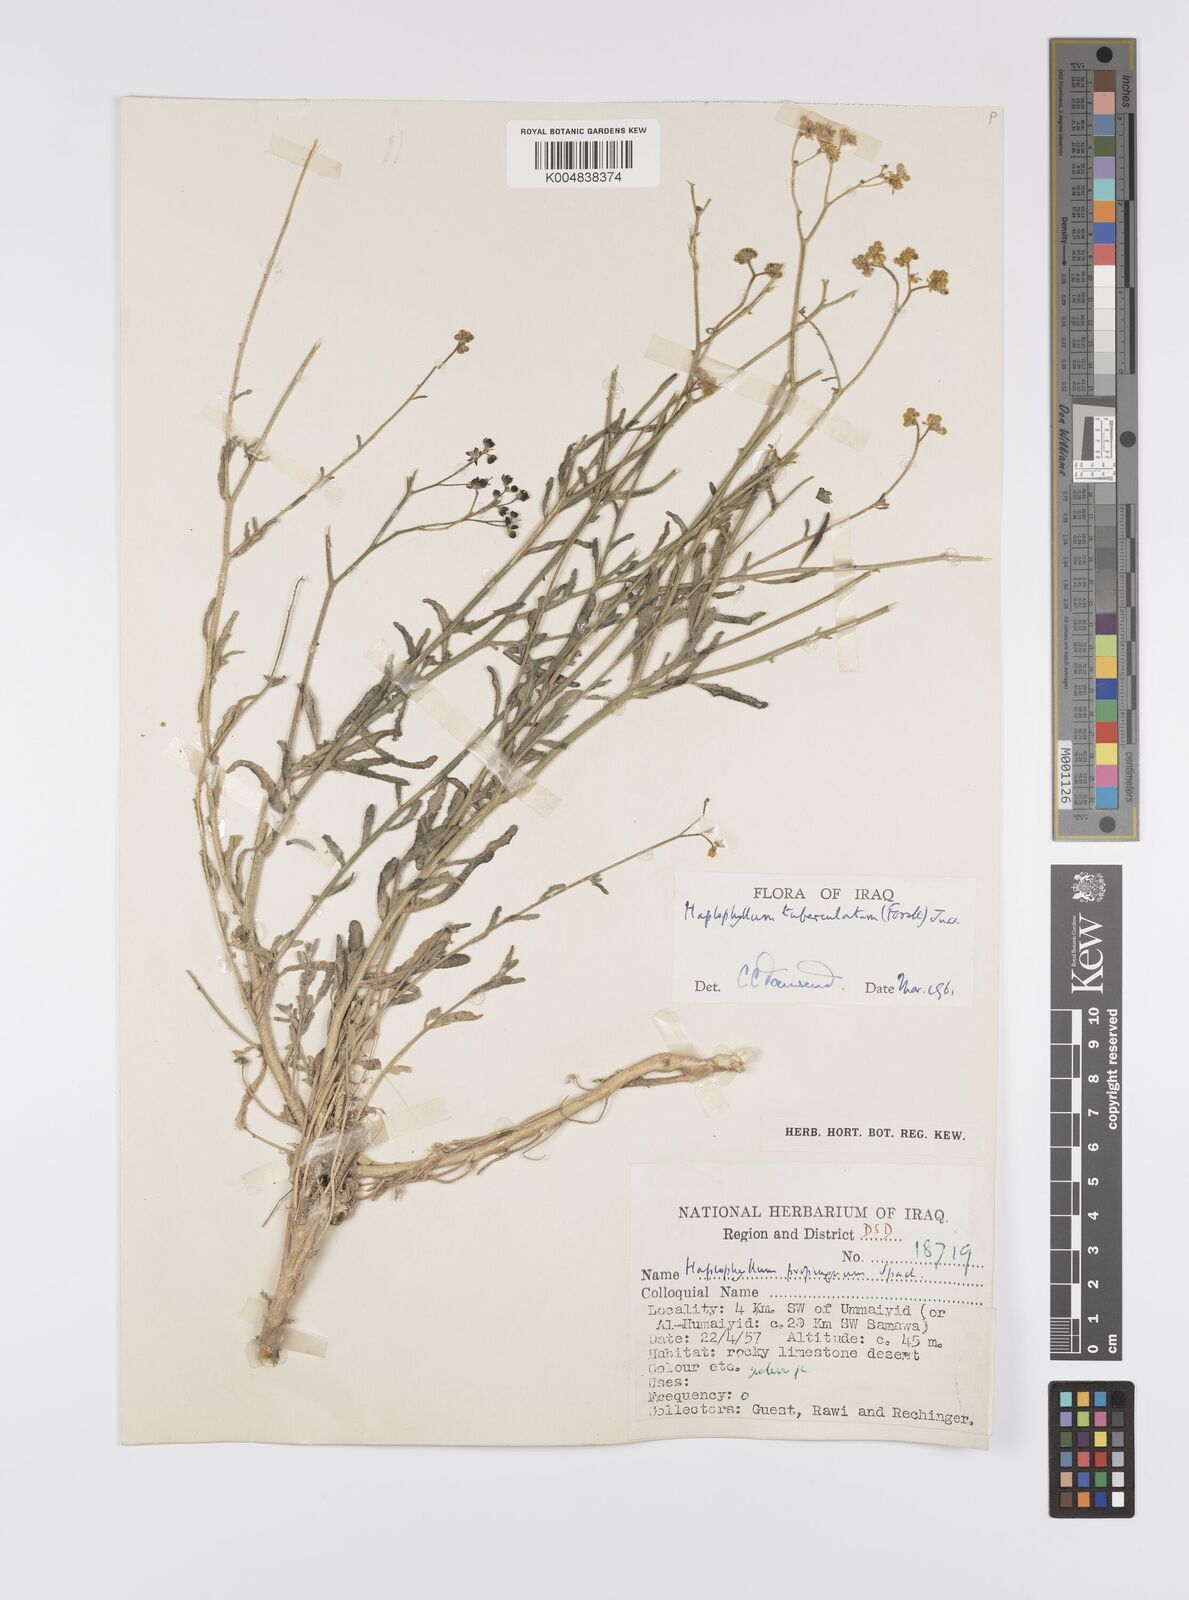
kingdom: Plantae
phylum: Tracheophyta
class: Magnoliopsida
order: Sapindales
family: Rutaceae
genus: Haplophyllum
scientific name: Haplophyllum tuberculatum
